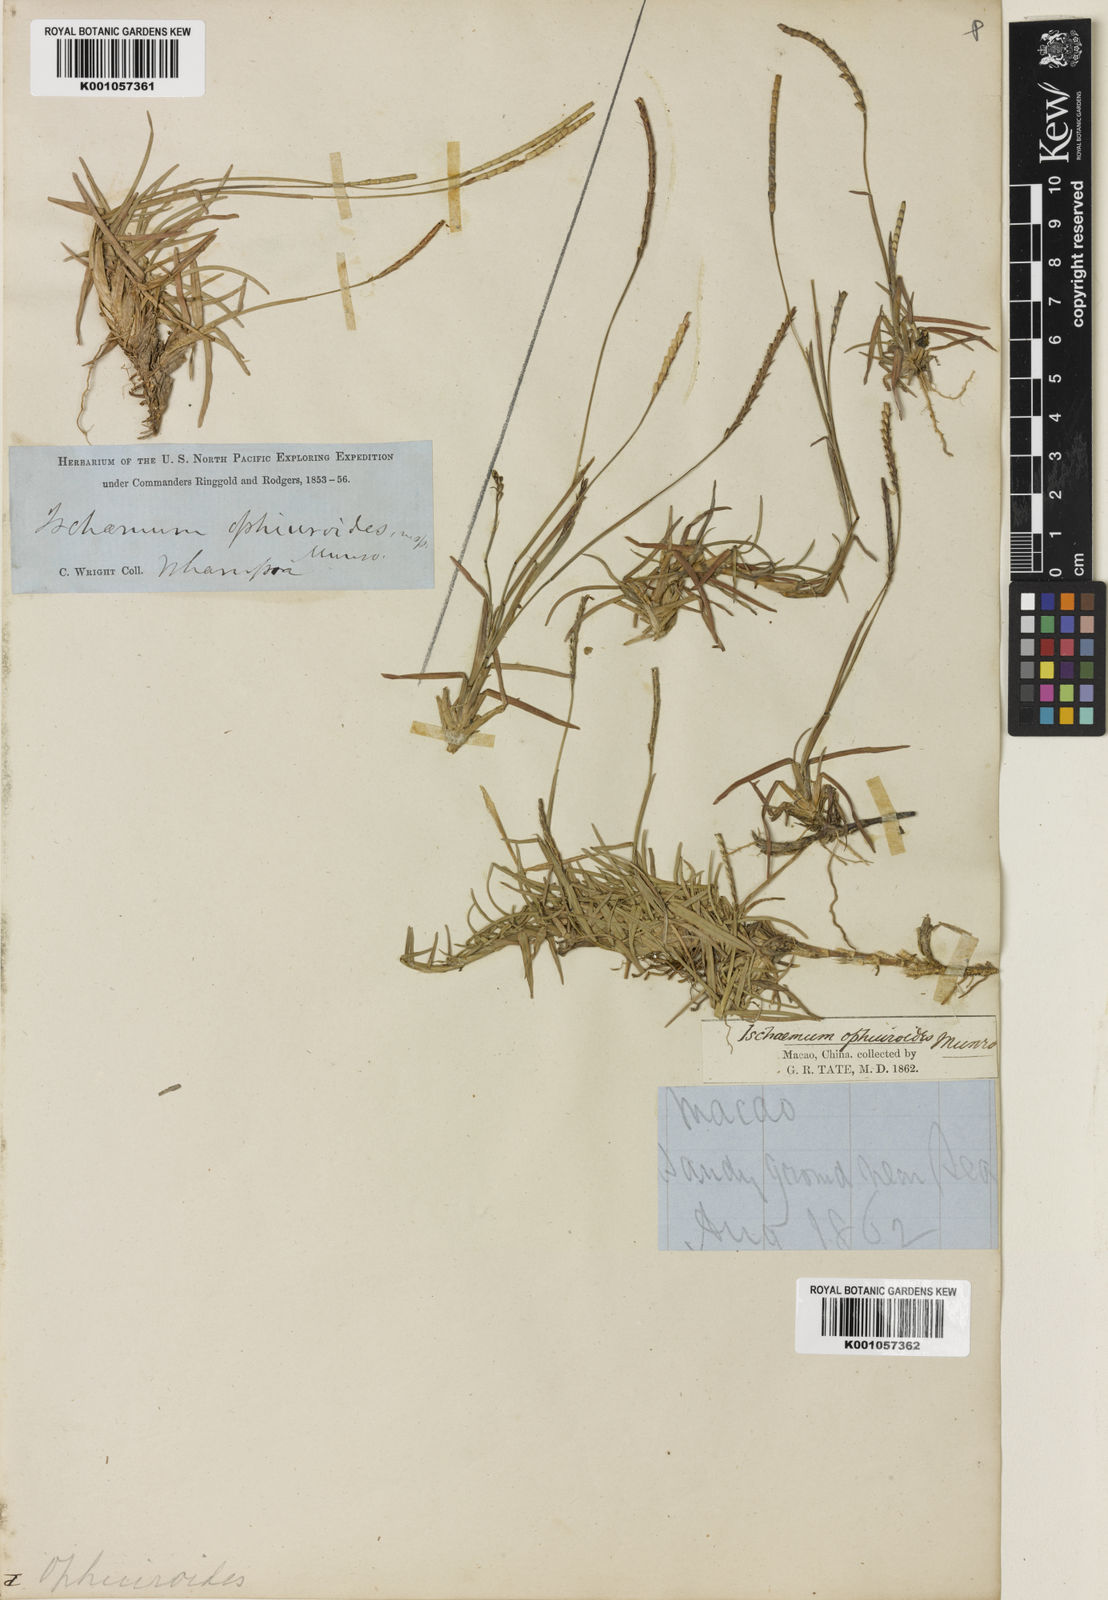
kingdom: Plantae
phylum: Tracheophyta
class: Liliopsida
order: Poales
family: Poaceae
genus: Eremochloa
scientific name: Eremochloa ophiuroides
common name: Centipede grass
